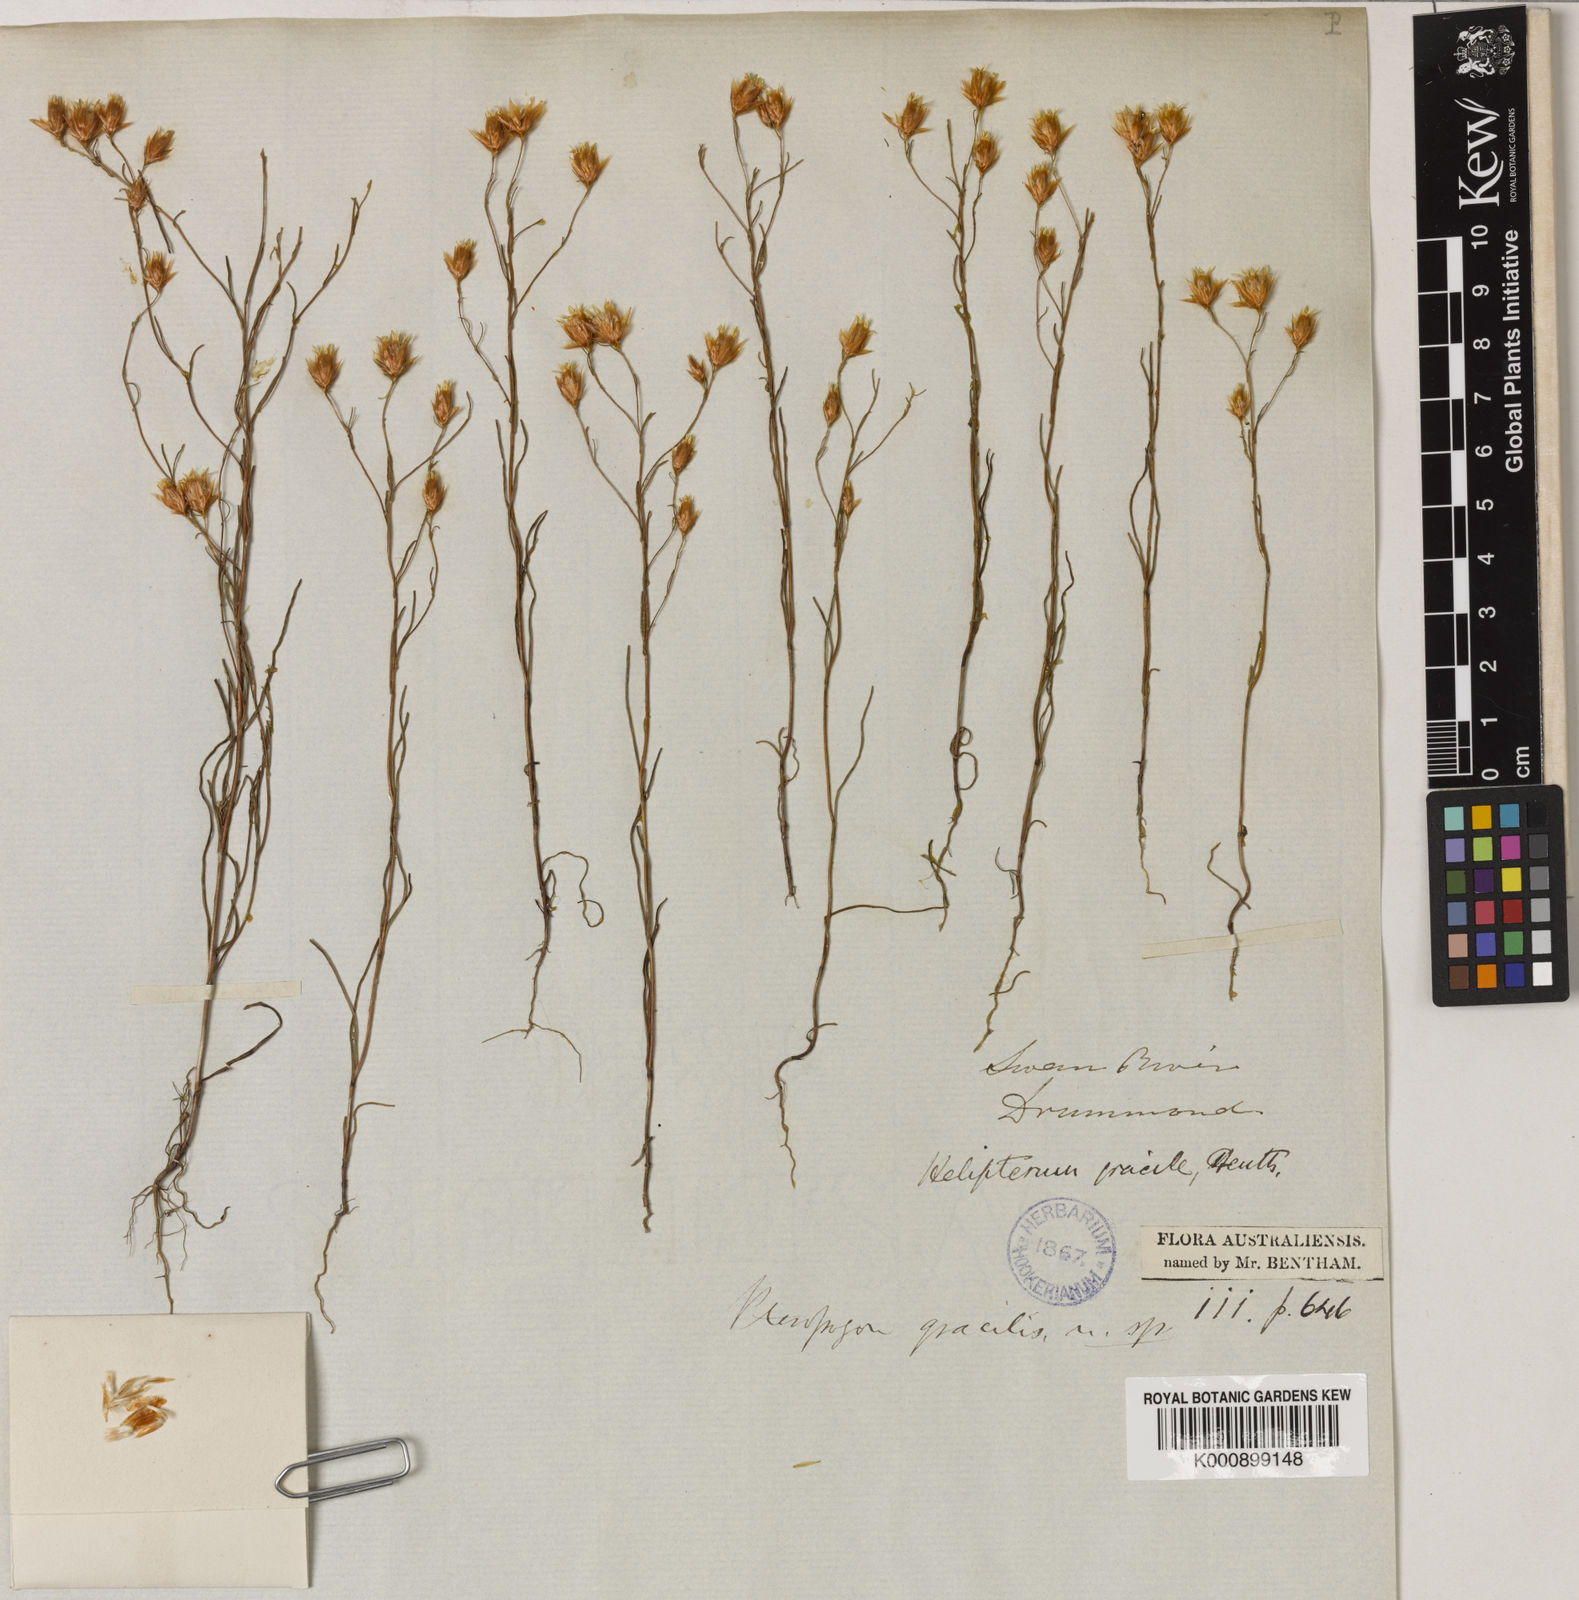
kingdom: Plantae
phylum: Tracheophyta
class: Magnoliopsida
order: Asterales
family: Asteraceae
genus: Erymophyllum
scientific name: Erymophyllum tenellum
